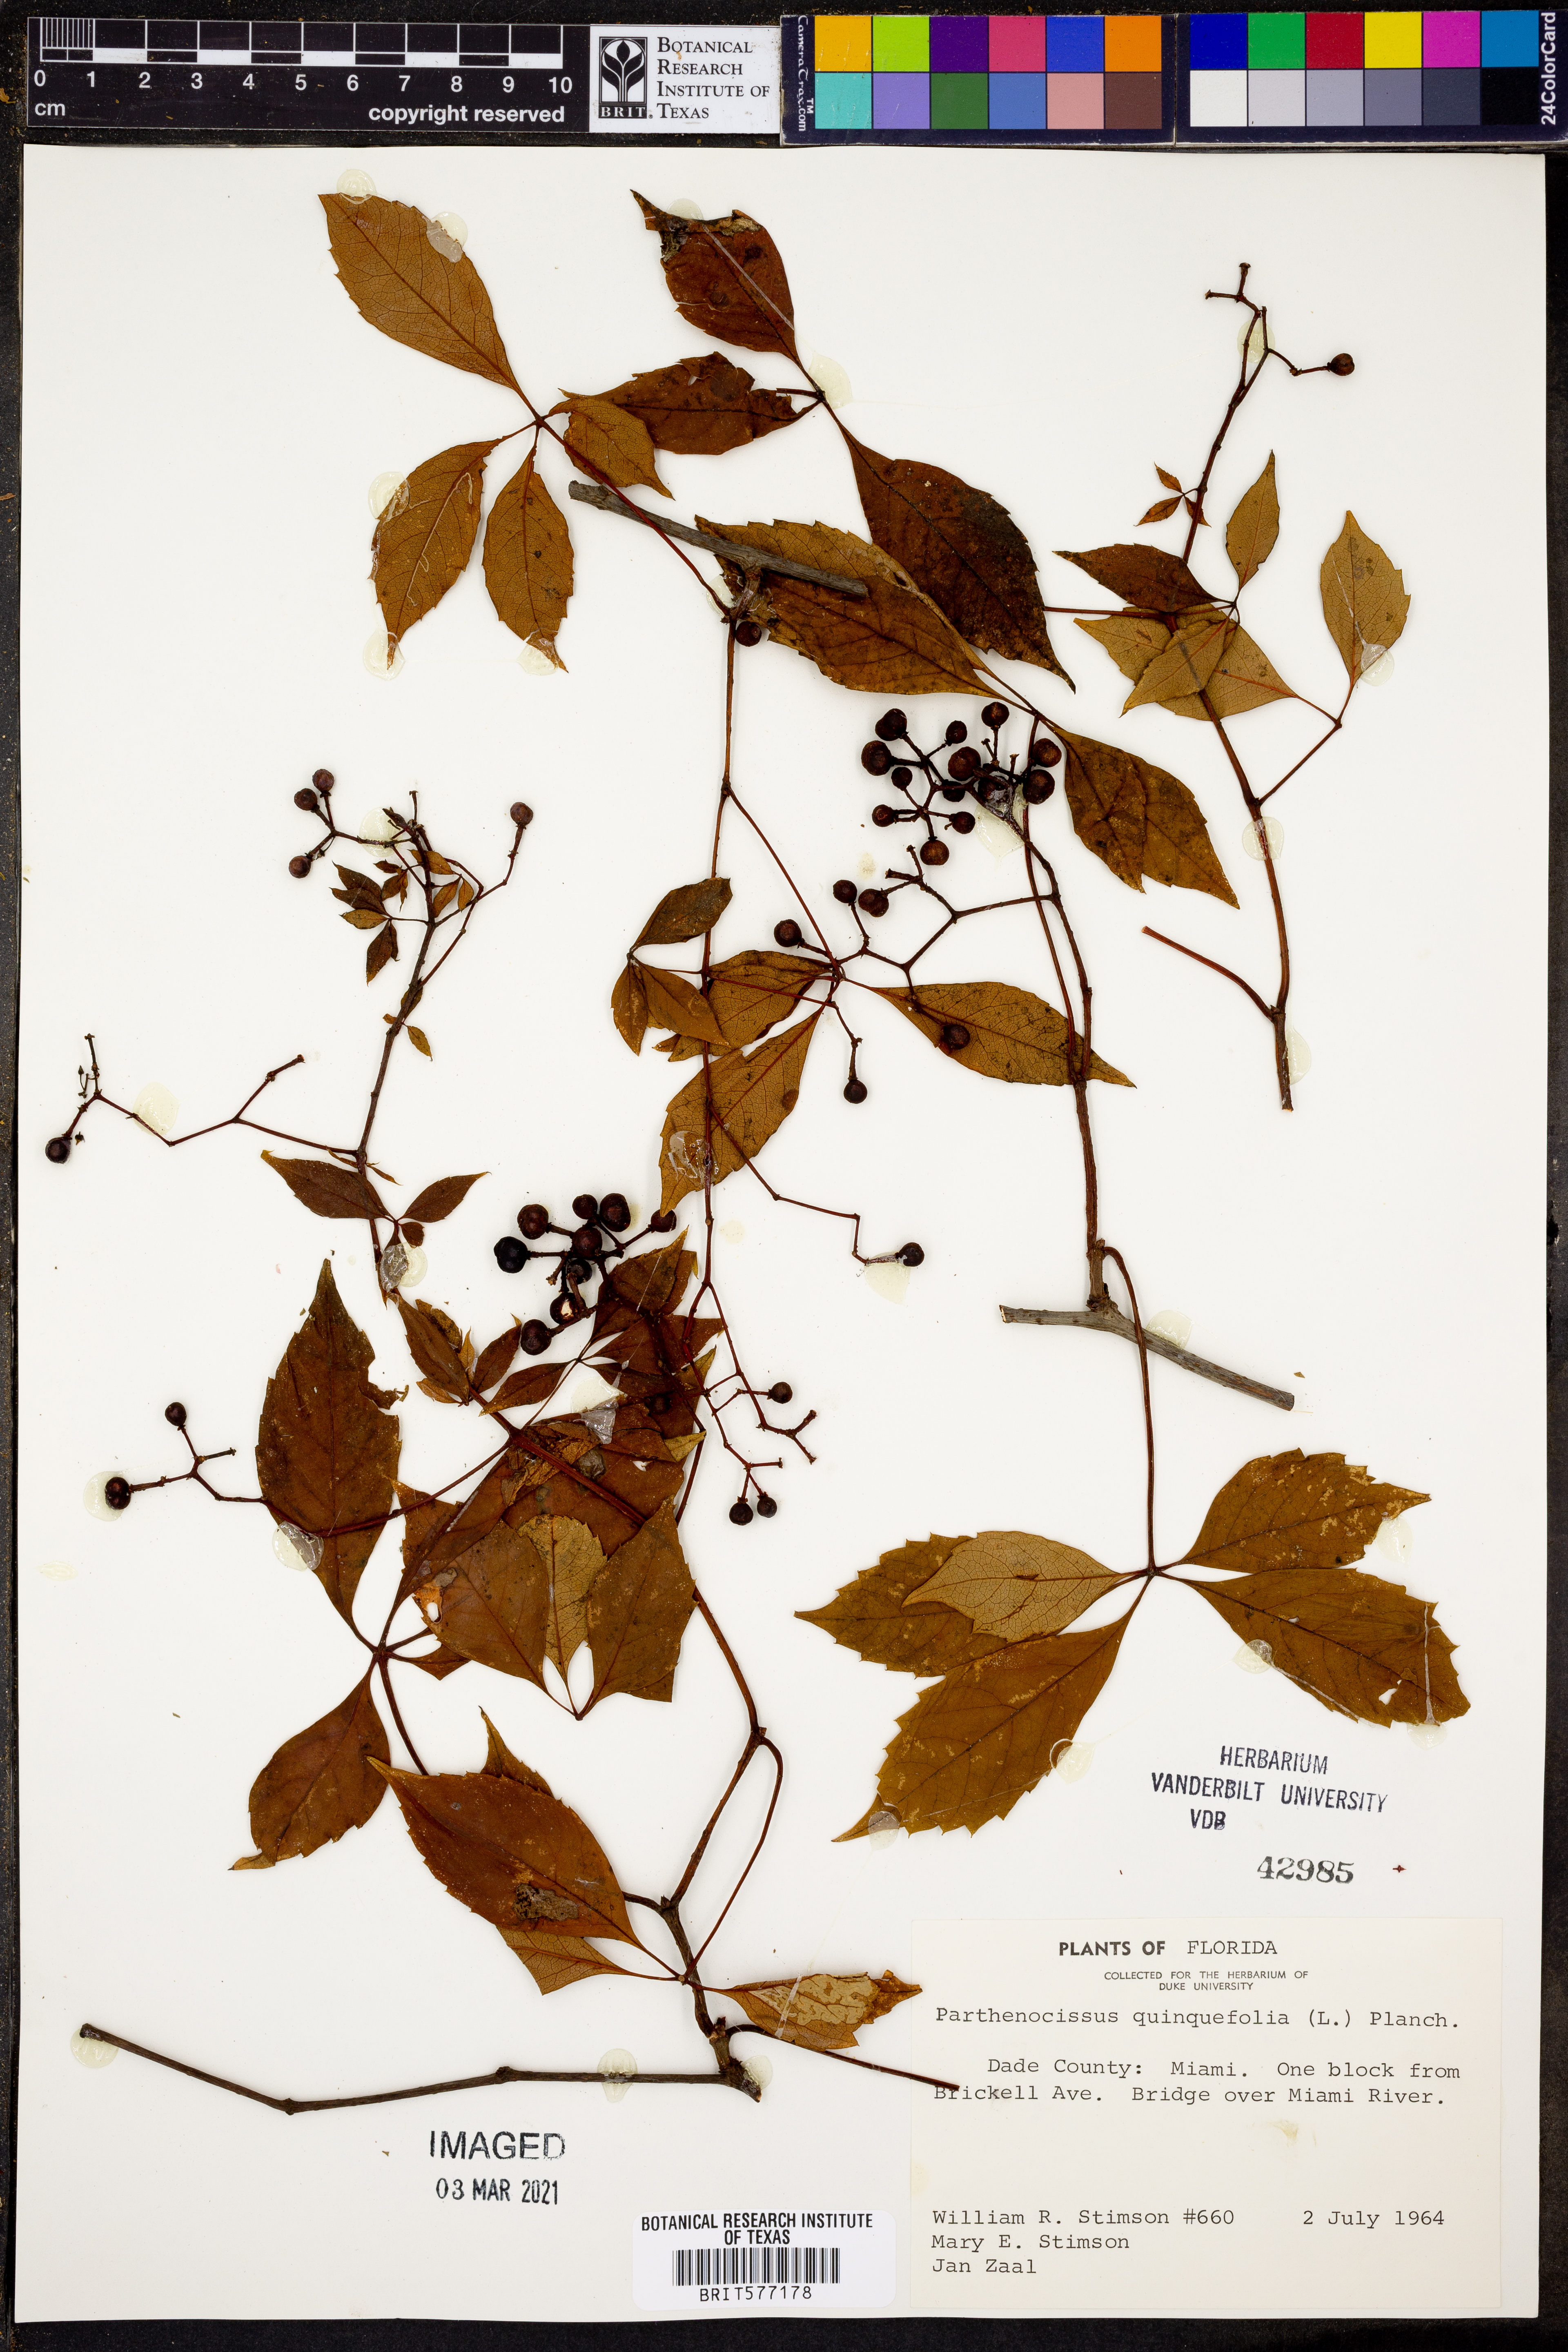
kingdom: Plantae
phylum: Tracheophyta
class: Magnoliopsida
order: Vitales
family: Vitaceae
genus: Parthenocissus
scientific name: Parthenocissus quinquefolia
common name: Virginia-creeper
